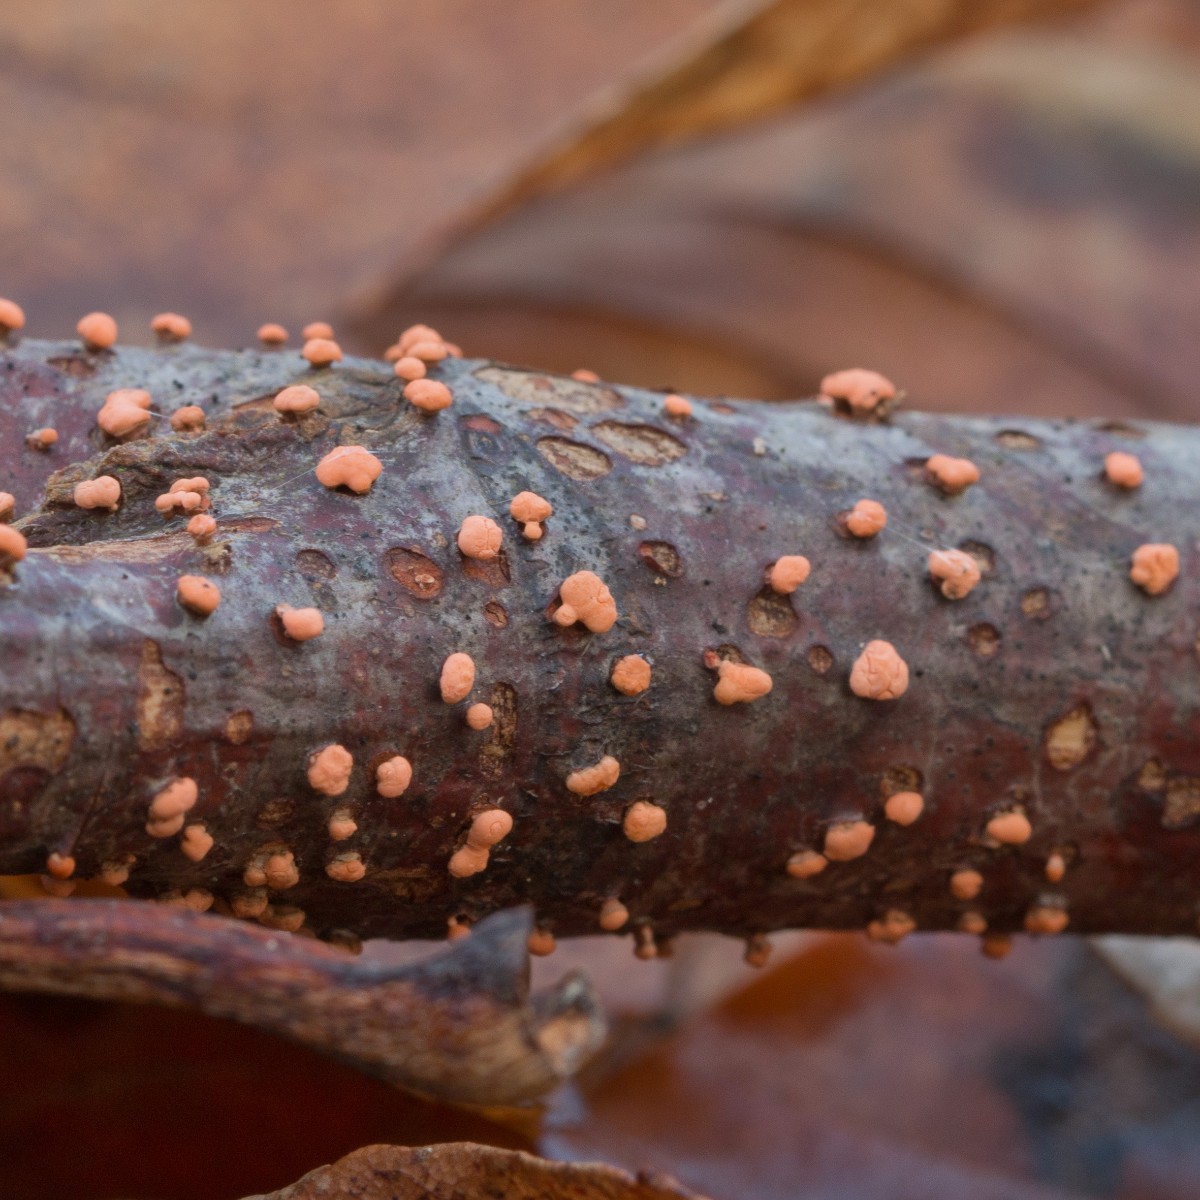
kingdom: Fungi
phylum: Ascomycota
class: Sordariomycetes
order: Hypocreales
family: Nectriaceae
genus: Nectria
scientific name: Nectria cinnabarina
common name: almindelig cinnobersvamp
